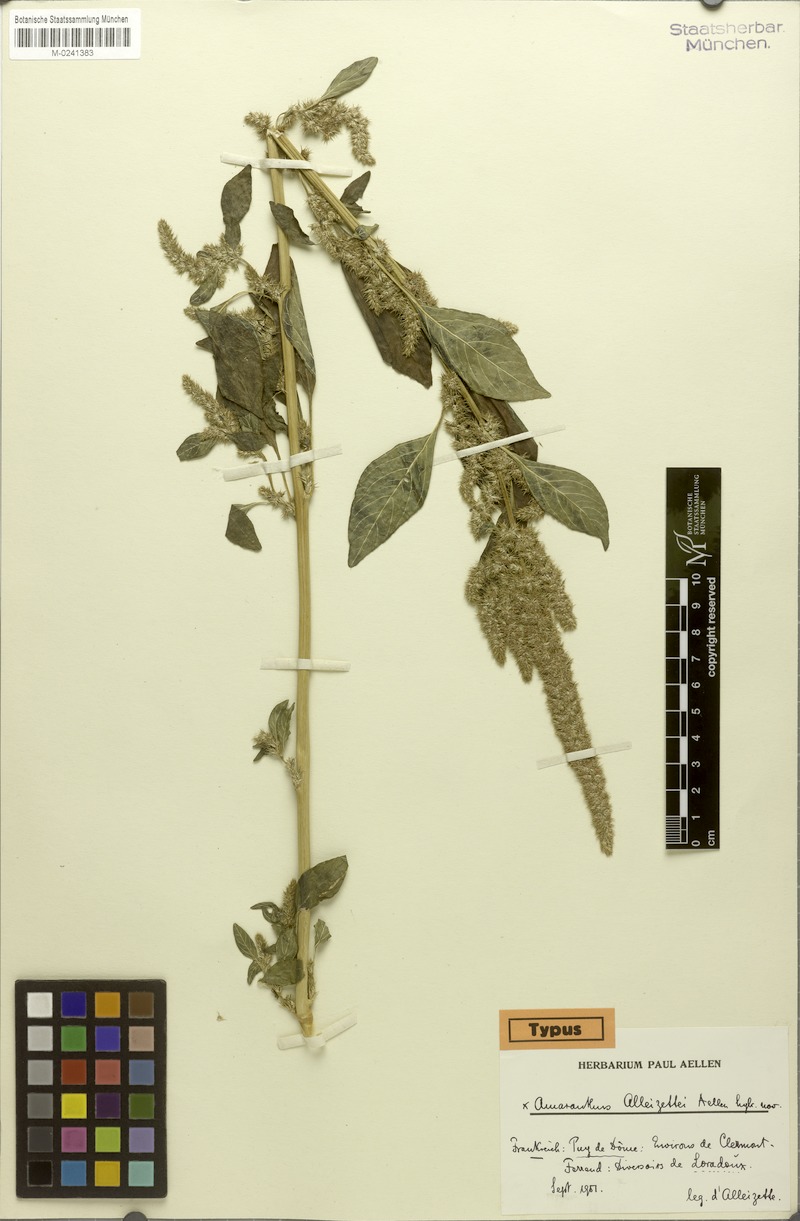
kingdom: Plantae
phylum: Tracheophyta
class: Magnoliopsida
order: Caryophyllales
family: Amaranthaceae
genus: Amaranthus
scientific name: Amaranthus alleizettei
